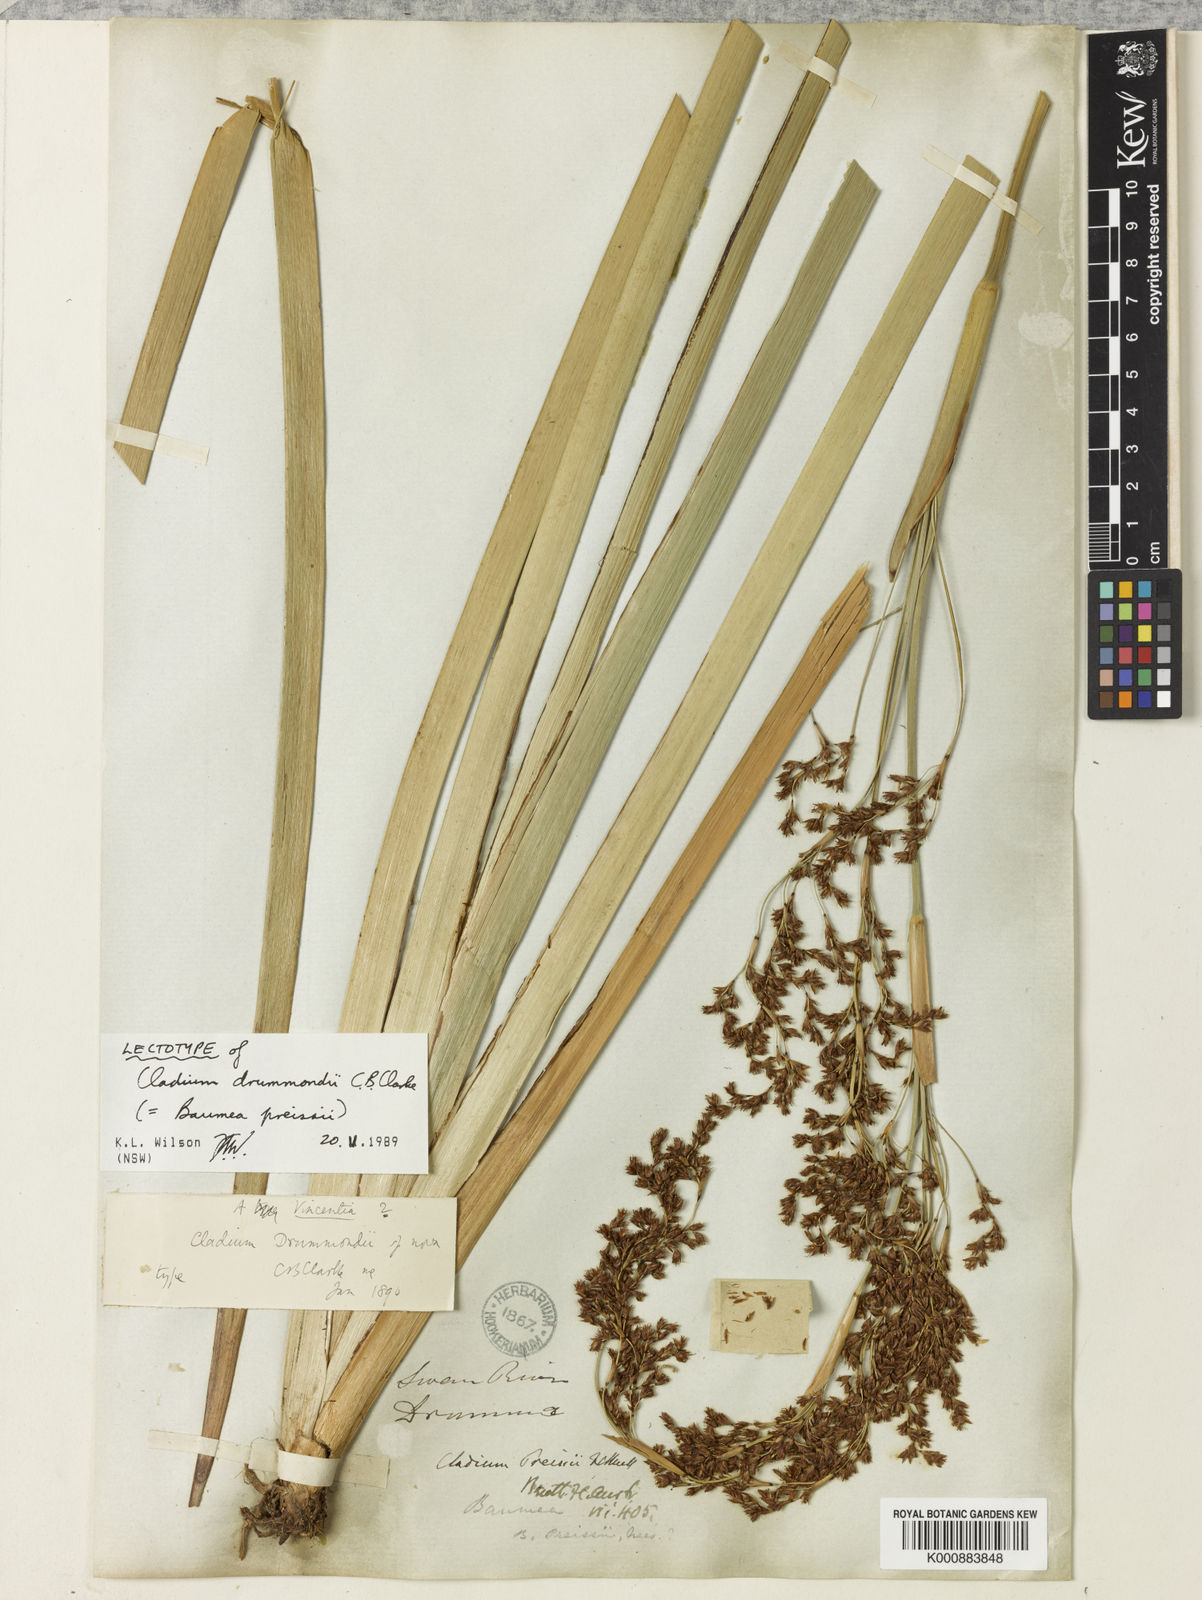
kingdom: Plantae
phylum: Tracheophyta
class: Liliopsida
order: Poales
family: Cyperaceae
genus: Machaerina
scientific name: Machaerina preissii
